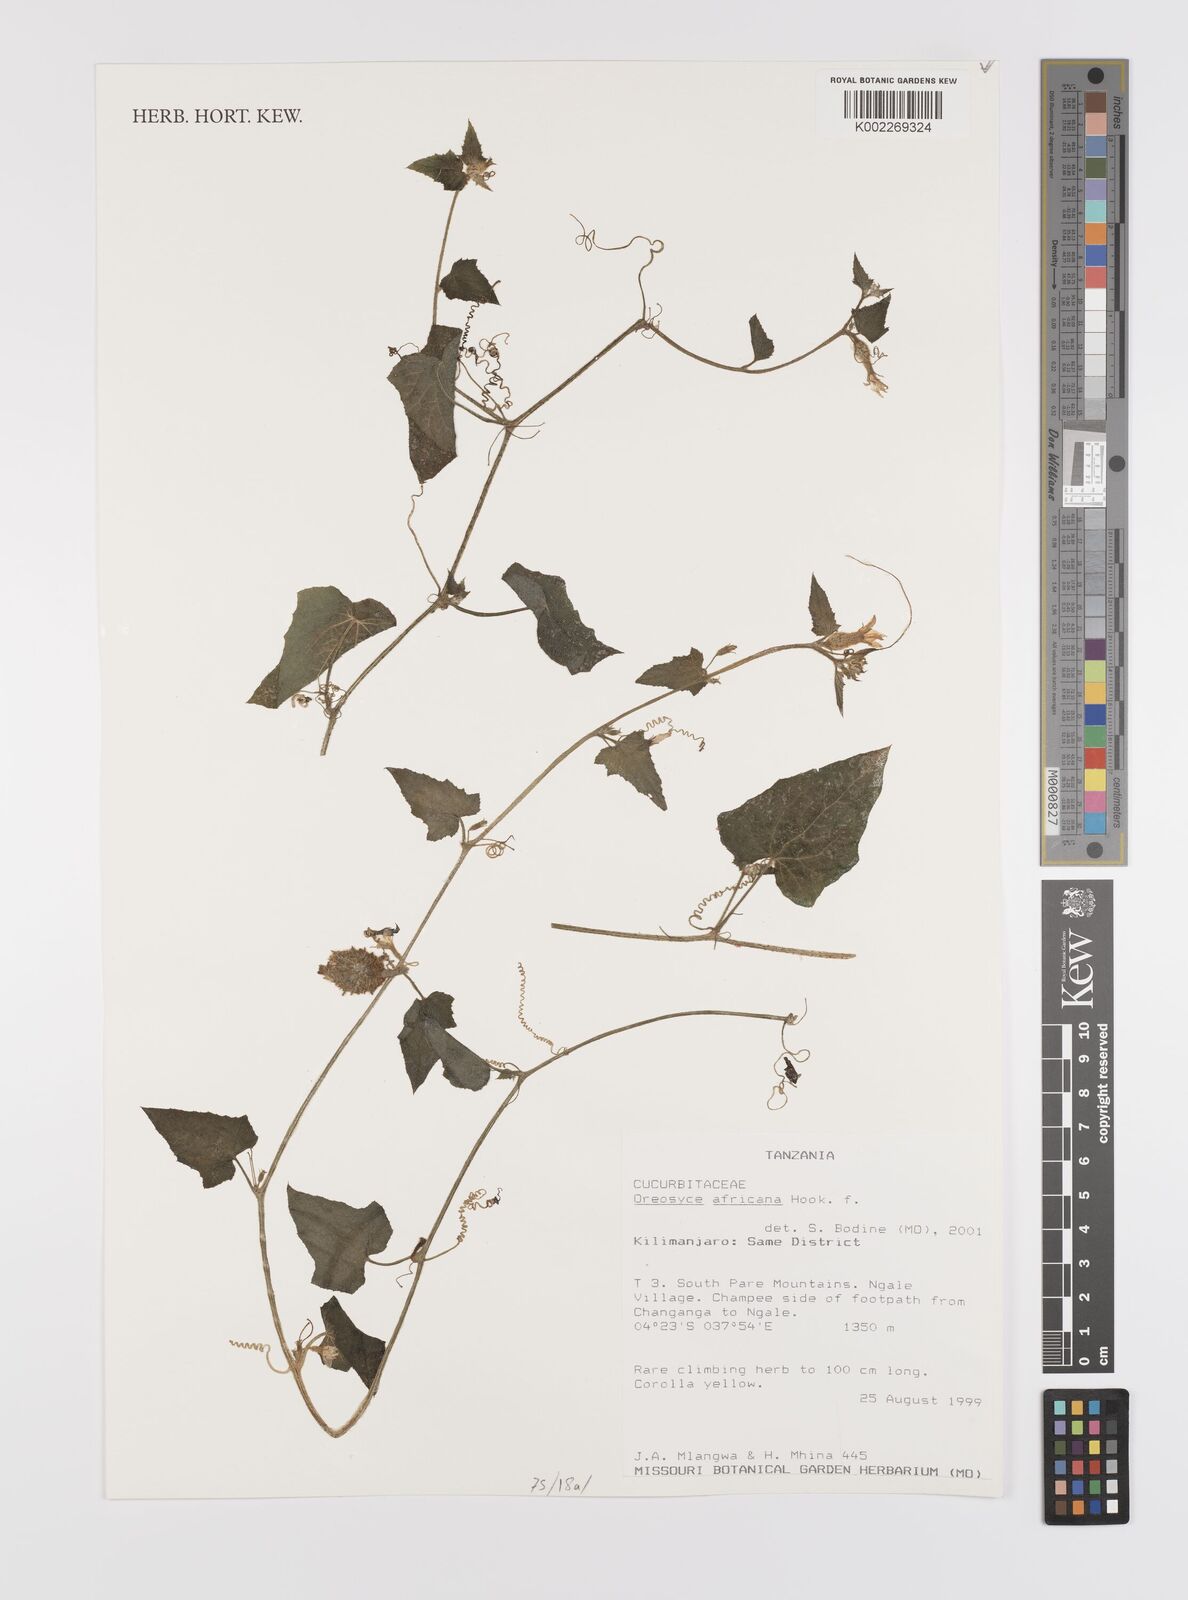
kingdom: Plantae
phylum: Tracheophyta
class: Magnoliopsida
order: Cucurbitales
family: Cucurbitaceae
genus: Cucumis
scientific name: Cucumis oreosyce
